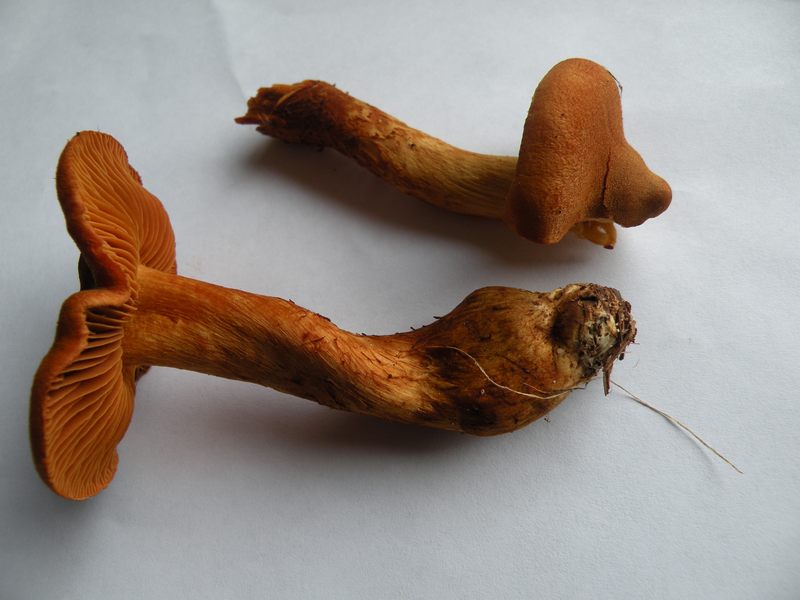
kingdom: Fungi
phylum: Basidiomycota
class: Agaricomycetes
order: Agaricales
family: Cortinariaceae
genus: Cortinarius
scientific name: Cortinarius rubellus
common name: puklet gift-slørhat
